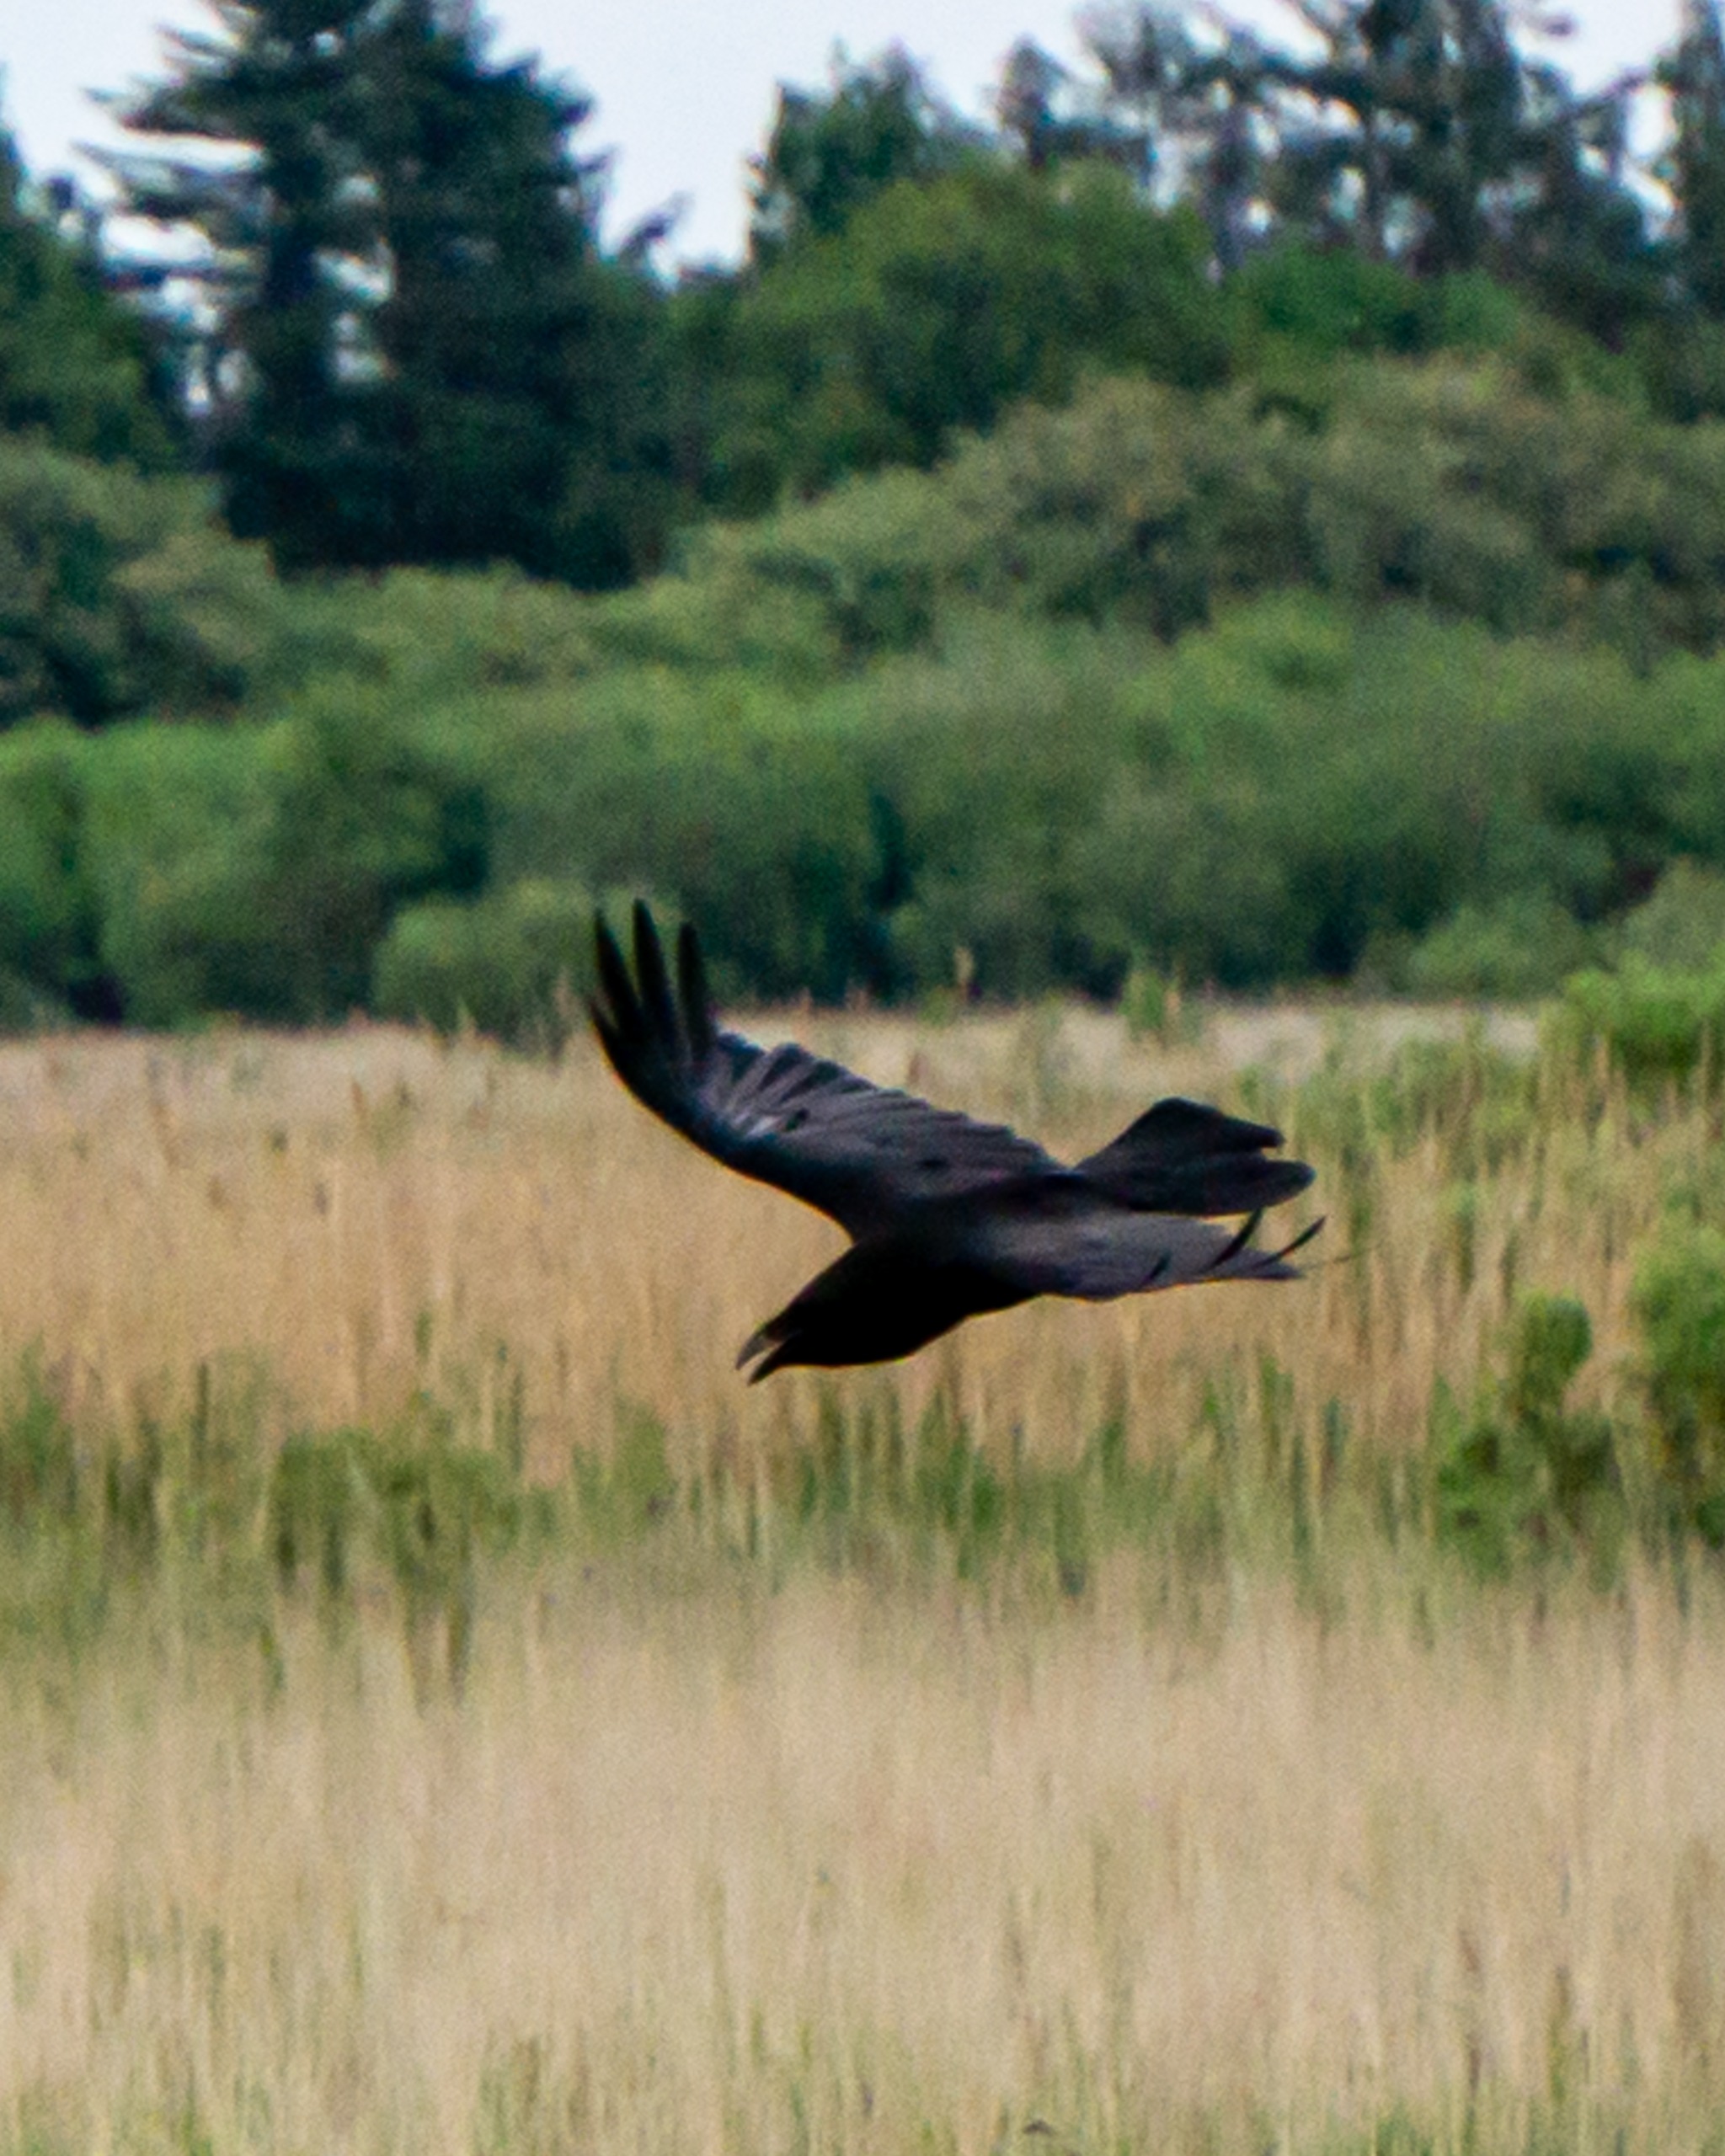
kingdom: Animalia
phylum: Chordata
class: Aves
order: Passeriformes
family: Corvidae
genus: Corvus
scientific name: Corvus corax
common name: Ravn
